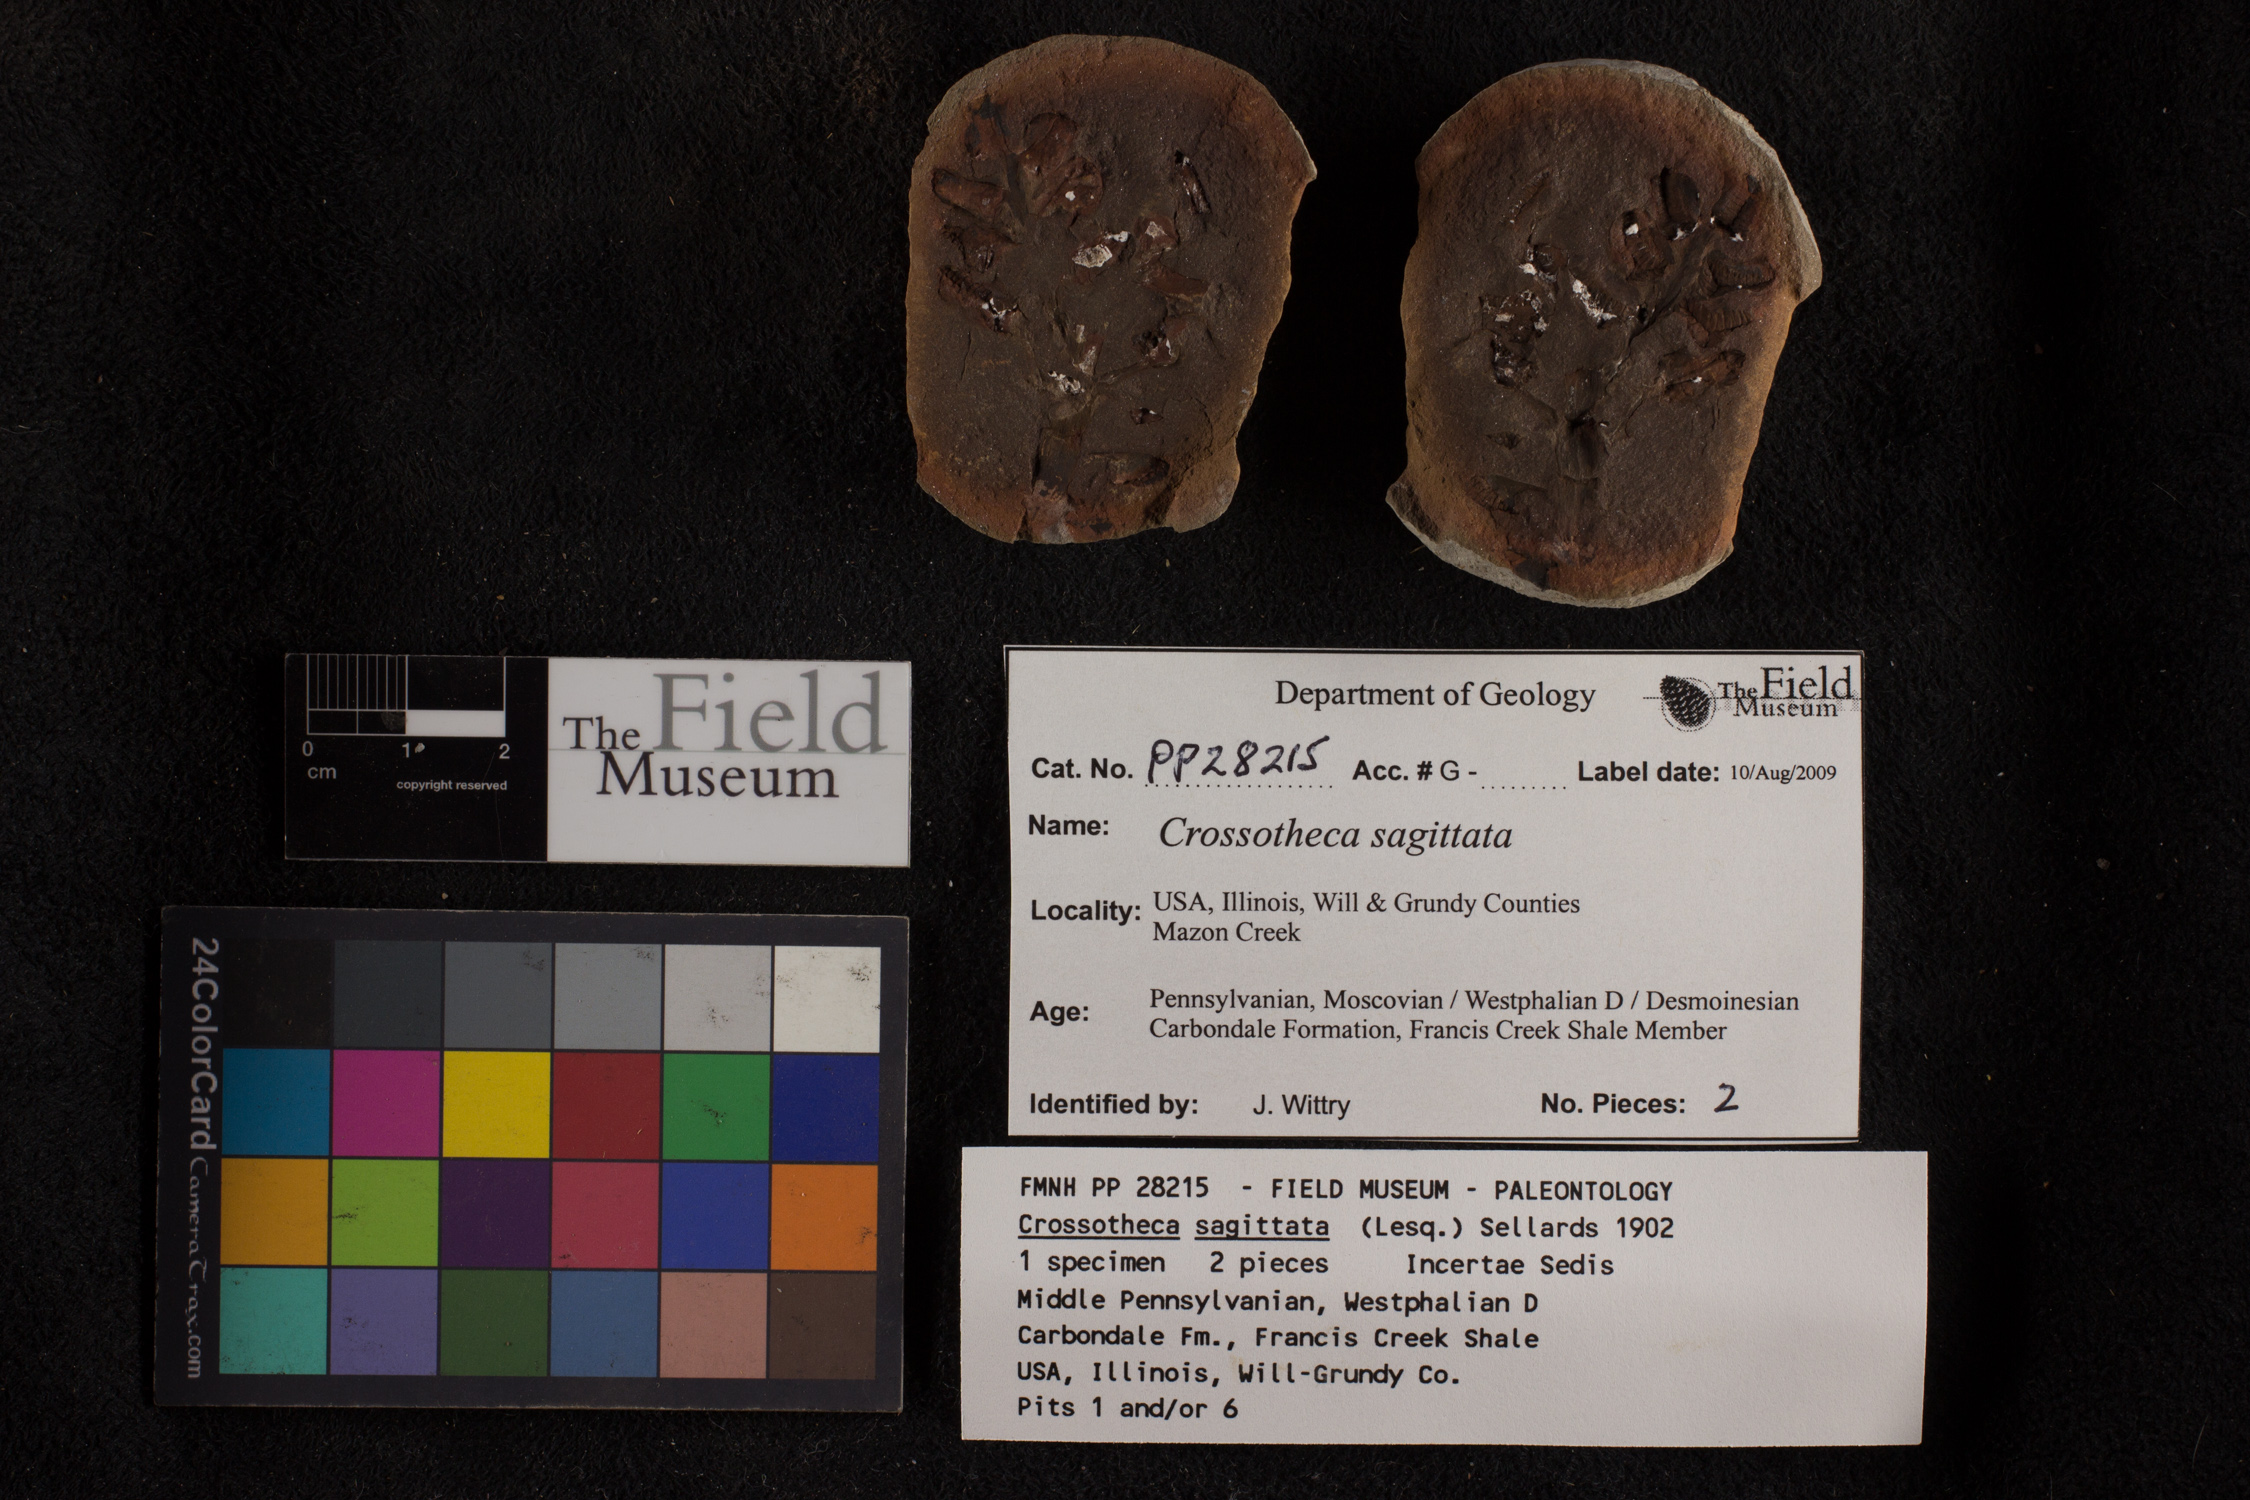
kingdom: Plantae
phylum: Tracheophyta
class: Polypodiopsida
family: Stauropteridaceae
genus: Crossotheca
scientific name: Crossotheca
